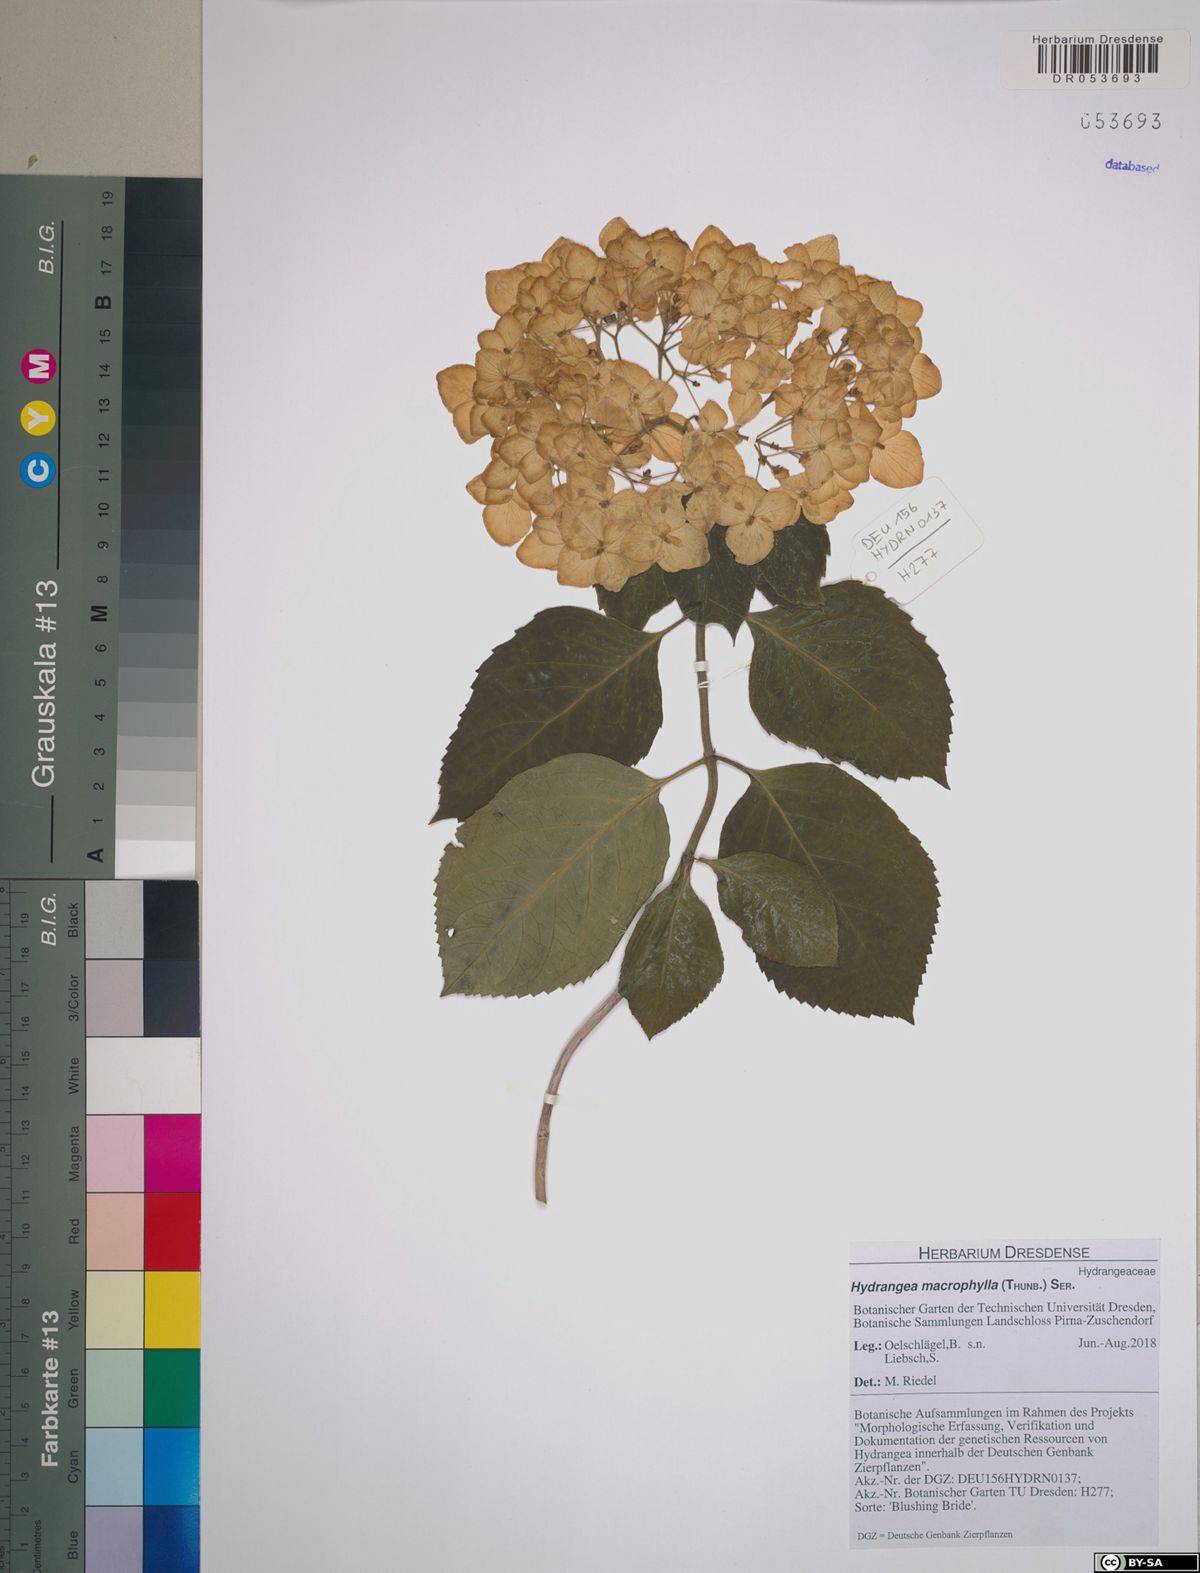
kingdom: Plantae
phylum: Tracheophyta
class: Magnoliopsida
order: Cornales
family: Hydrangeaceae
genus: Hydrangea
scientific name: Hydrangea macrophylla
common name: Hydrangea
